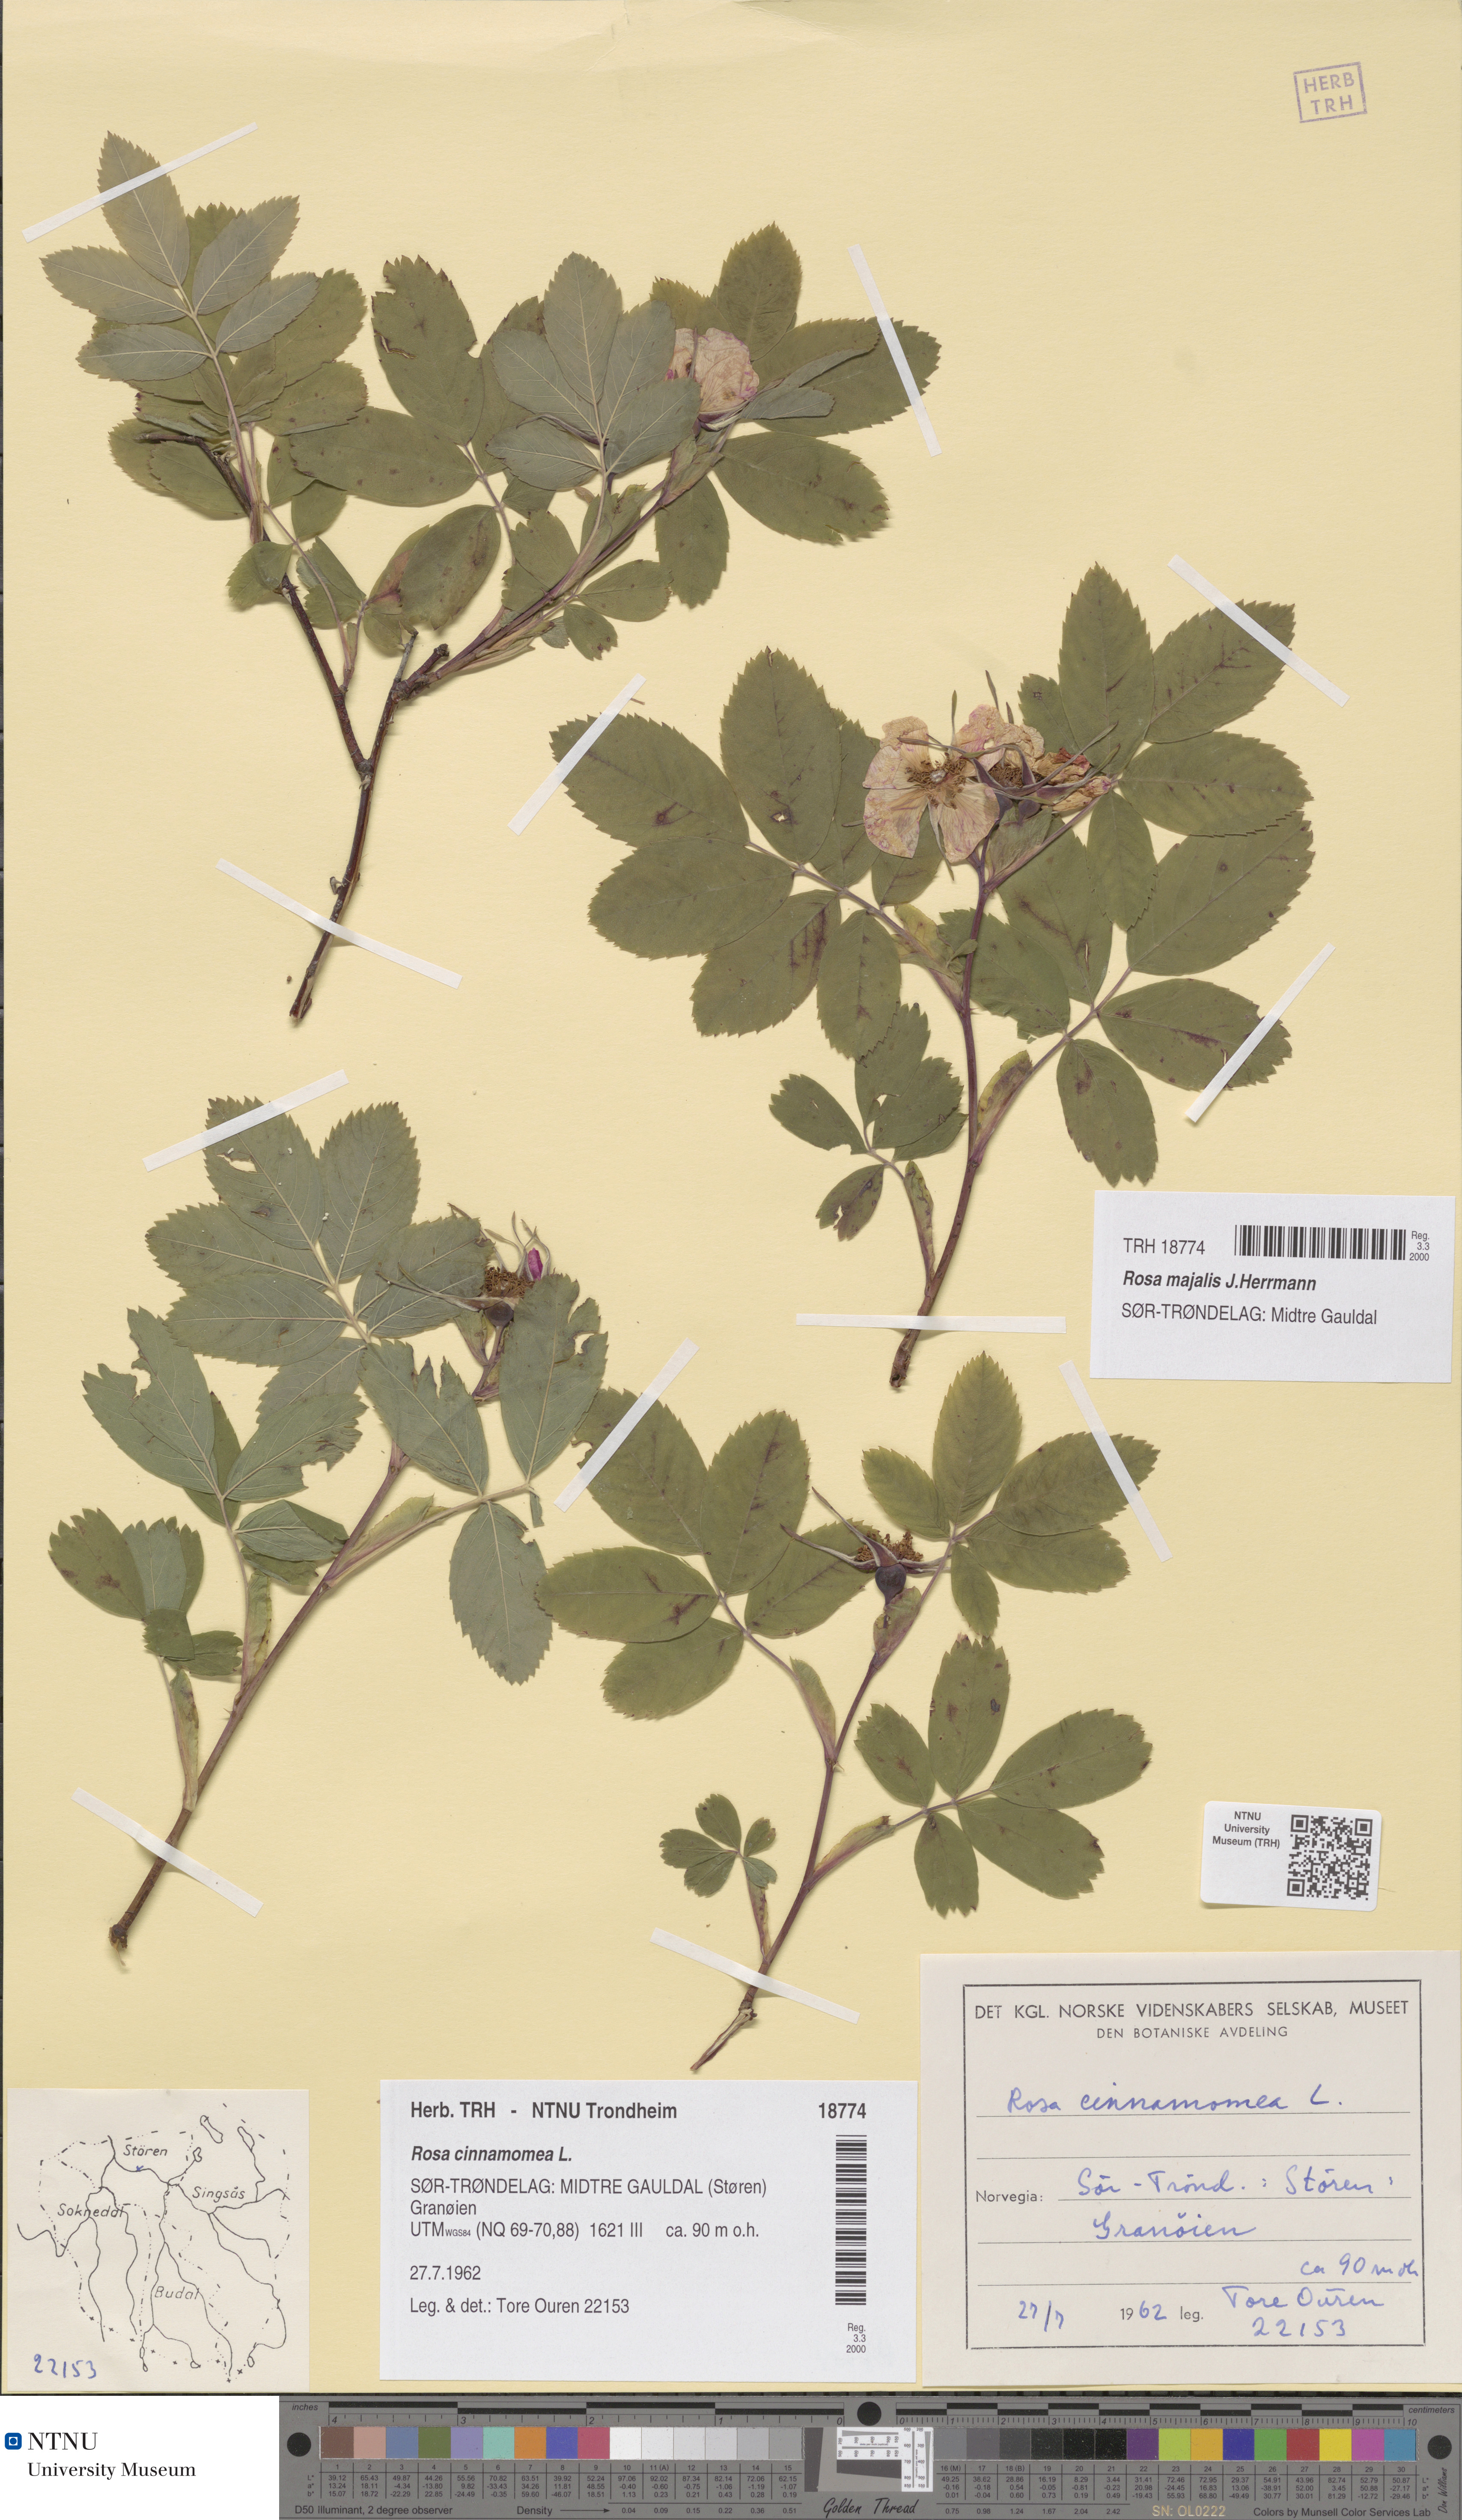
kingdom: Plantae
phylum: Tracheophyta
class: Magnoliopsida
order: Rosales
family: Rosaceae
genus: Rosa
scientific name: Rosa pendulina
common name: Alpine rose
